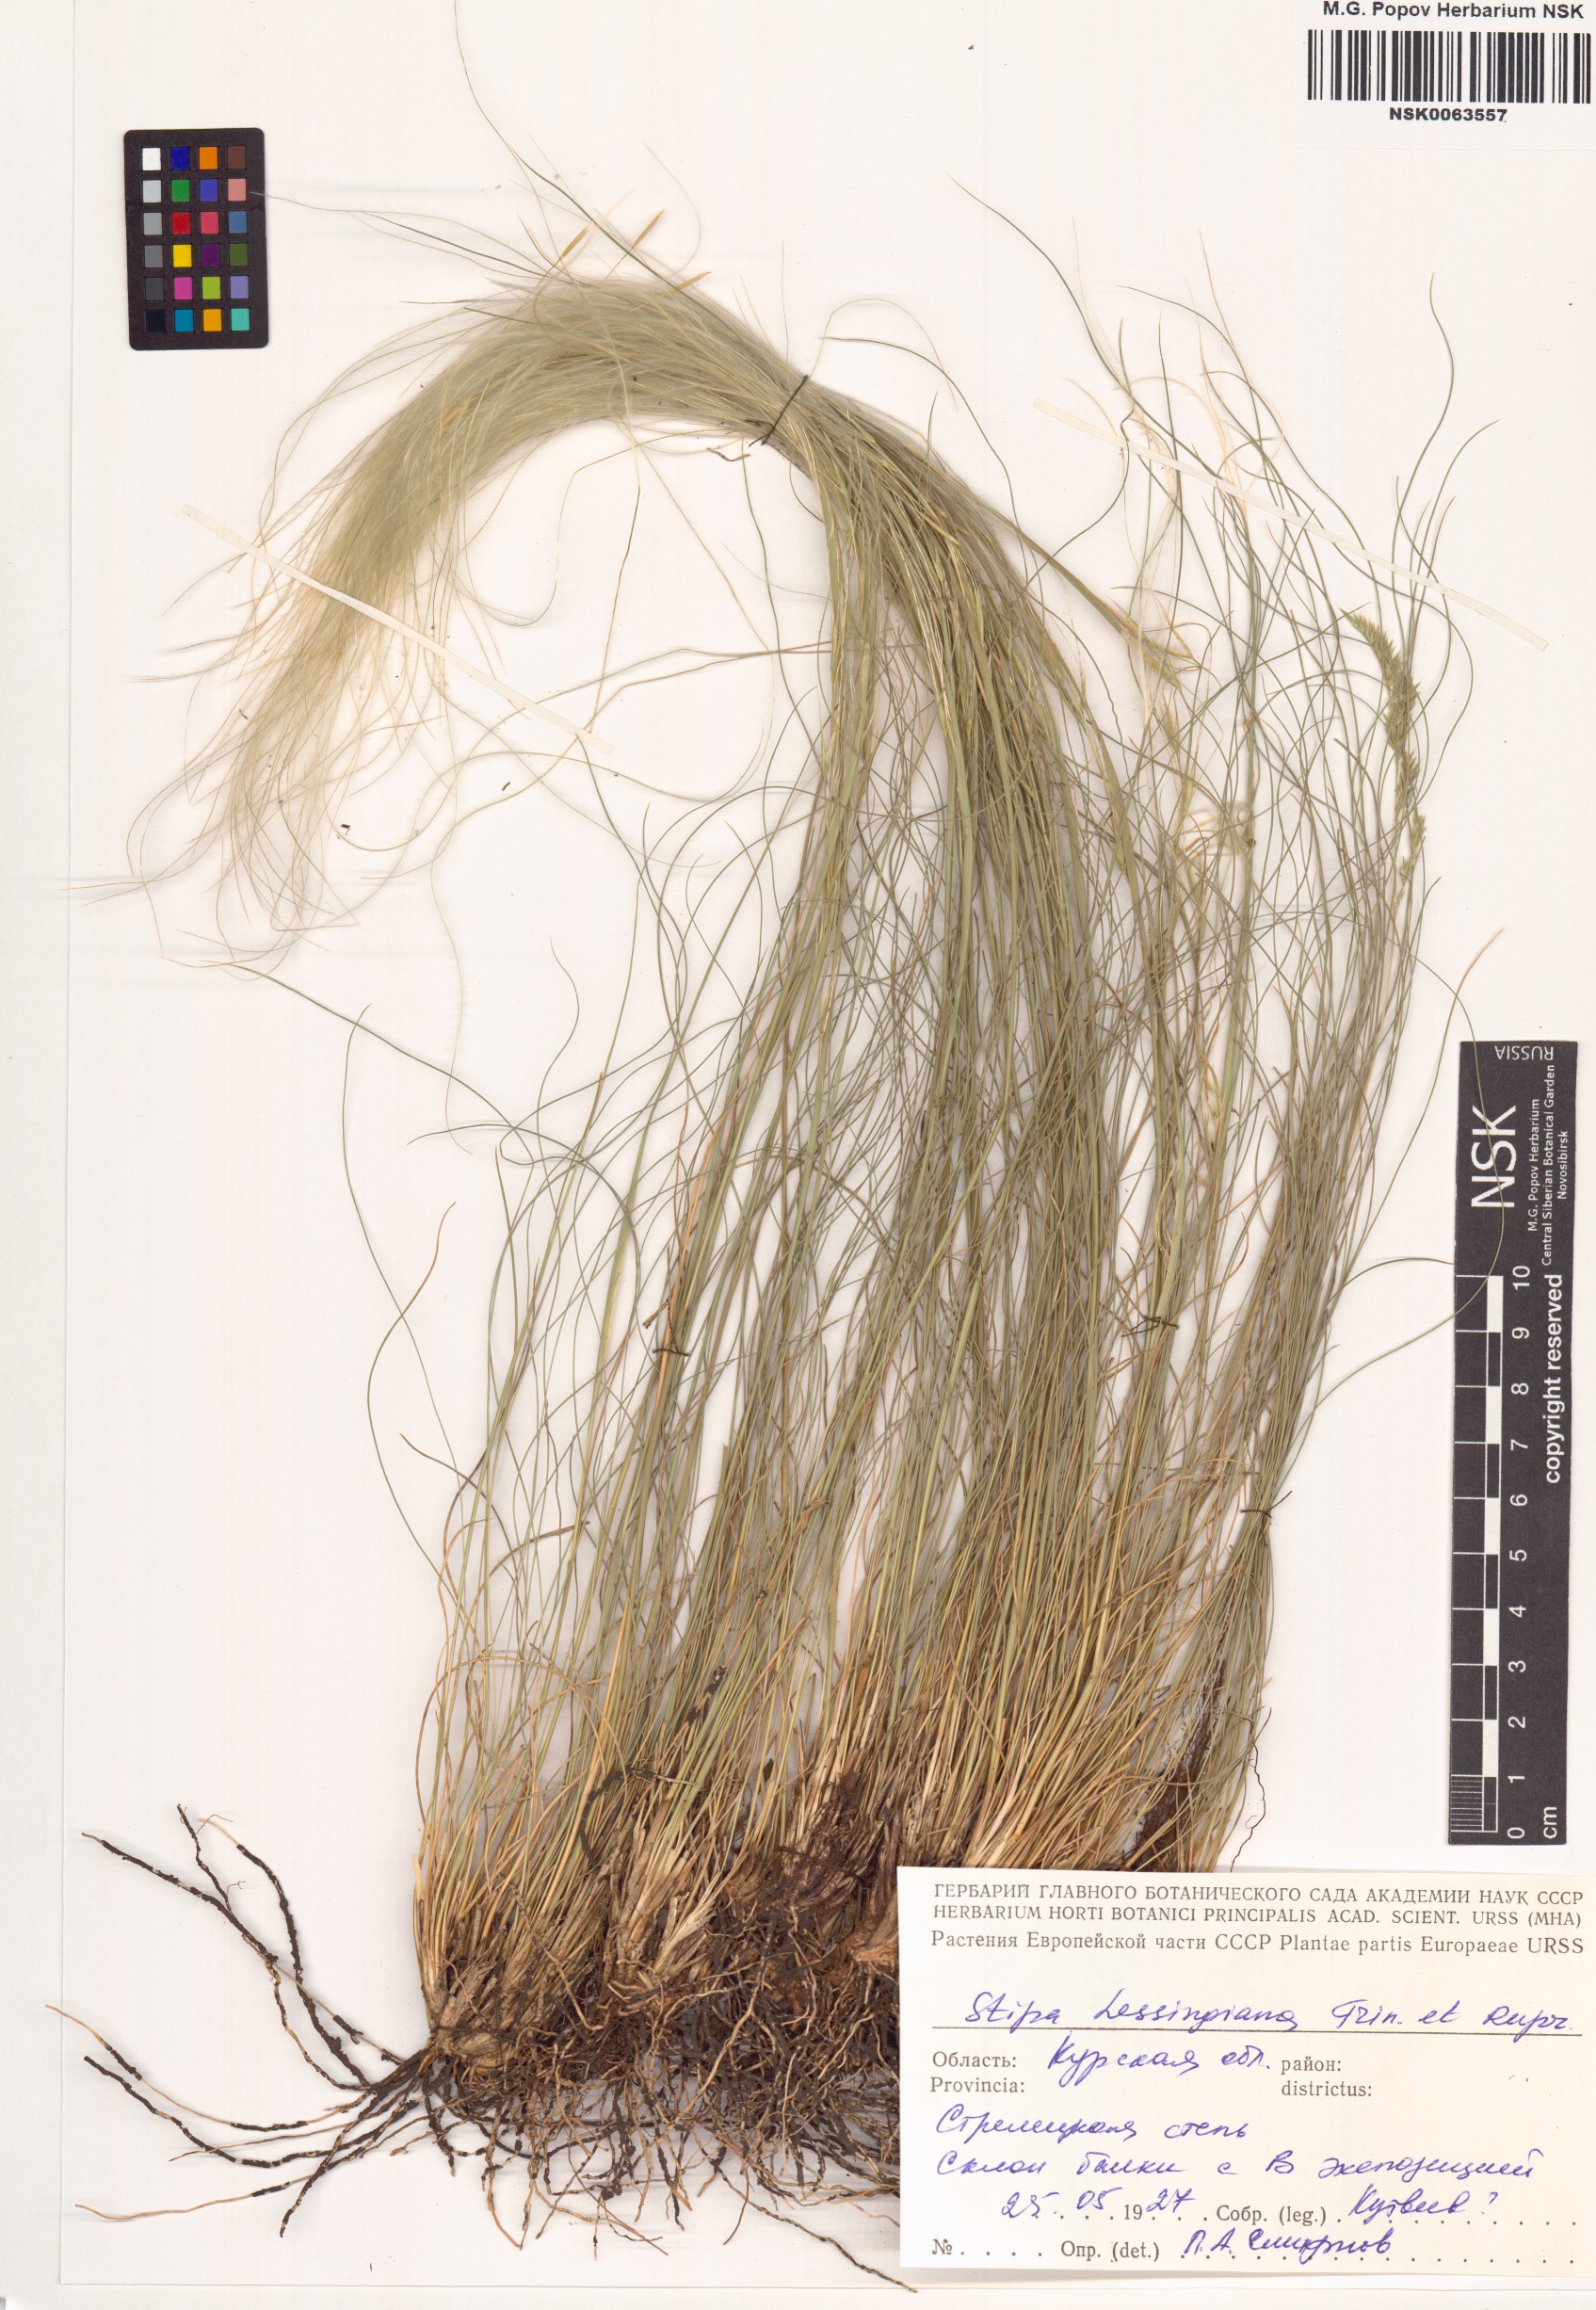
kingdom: Plantae
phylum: Tracheophyta
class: Liliopsida
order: Poales
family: Poaceae
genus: Stipa
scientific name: Stipa lessingiana
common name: Needle grass
